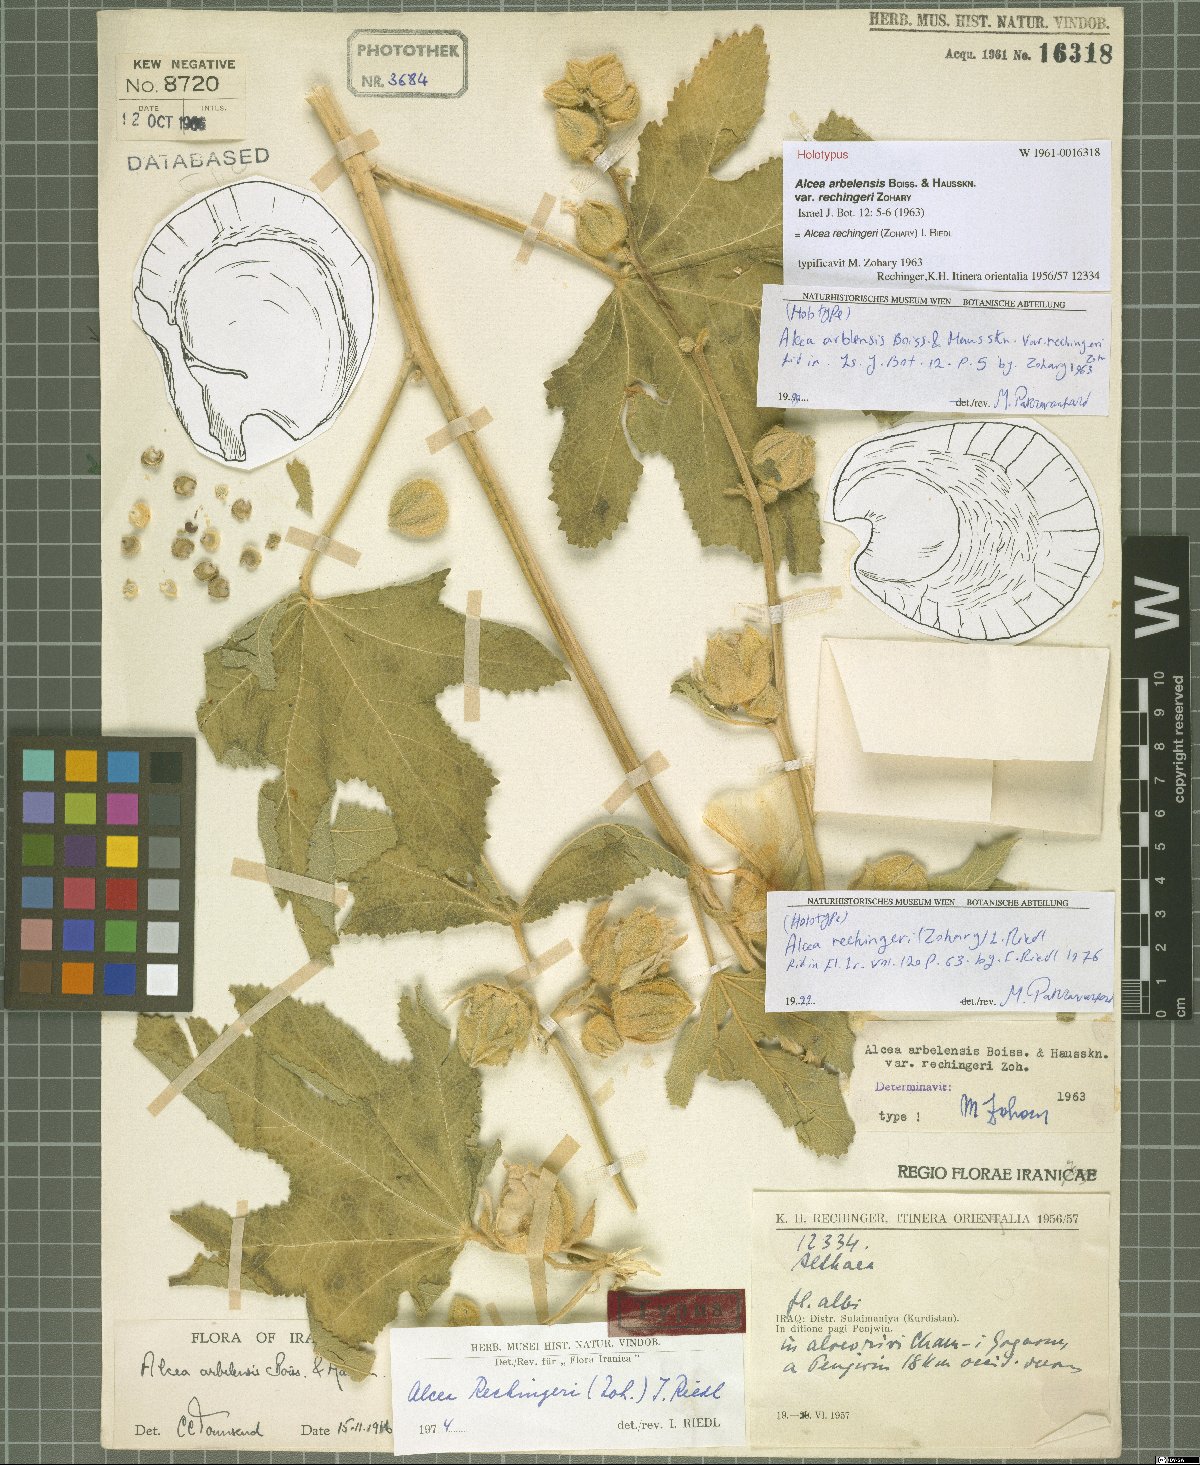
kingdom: Plantae
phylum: Tracheophyta
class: Magnoliopsida
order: Malvales
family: Malvaceae
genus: Alcea
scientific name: Alcea rechingeri
